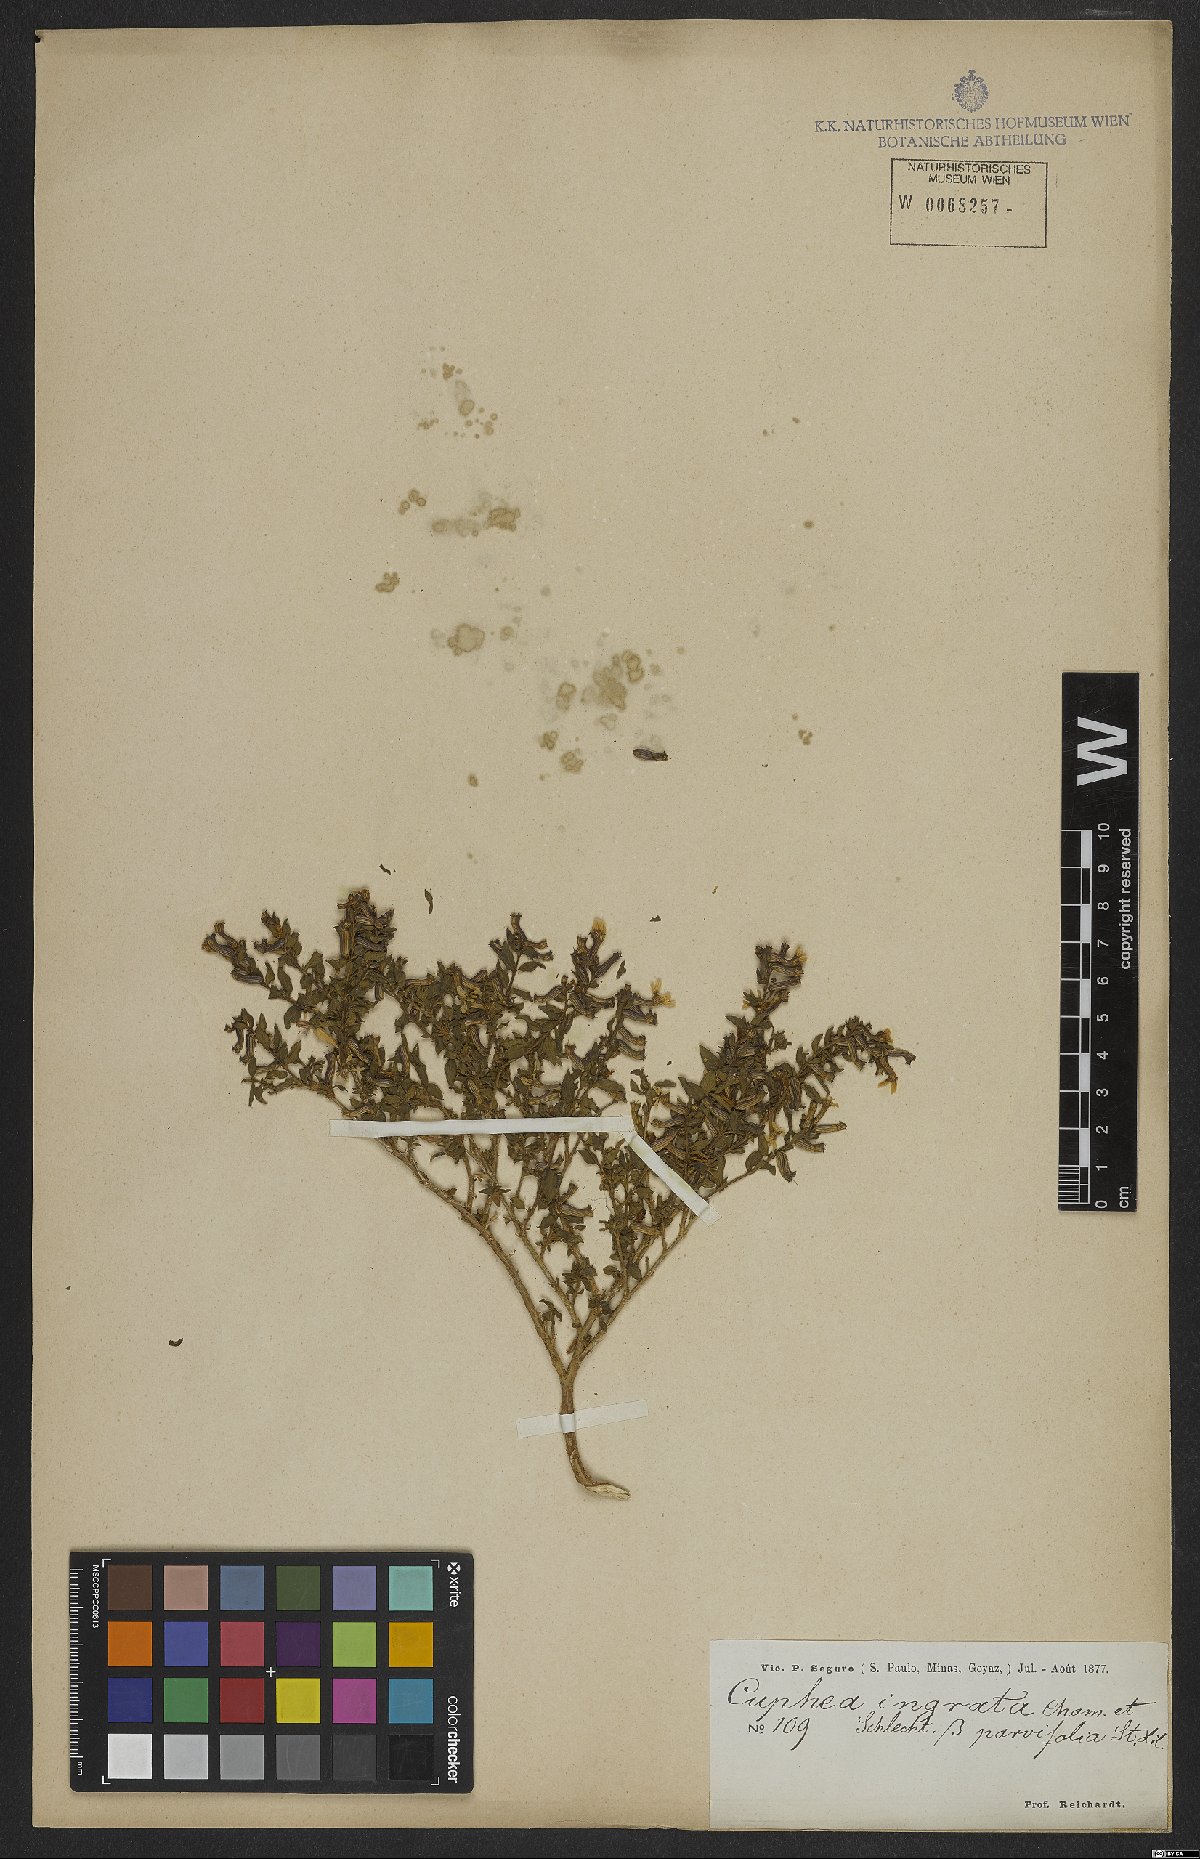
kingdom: Plantae
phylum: Tracheophyta
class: Magnoliopsida
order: Myrtales
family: Lythraceae
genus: Cuphea
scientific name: Cuphea ingrata
